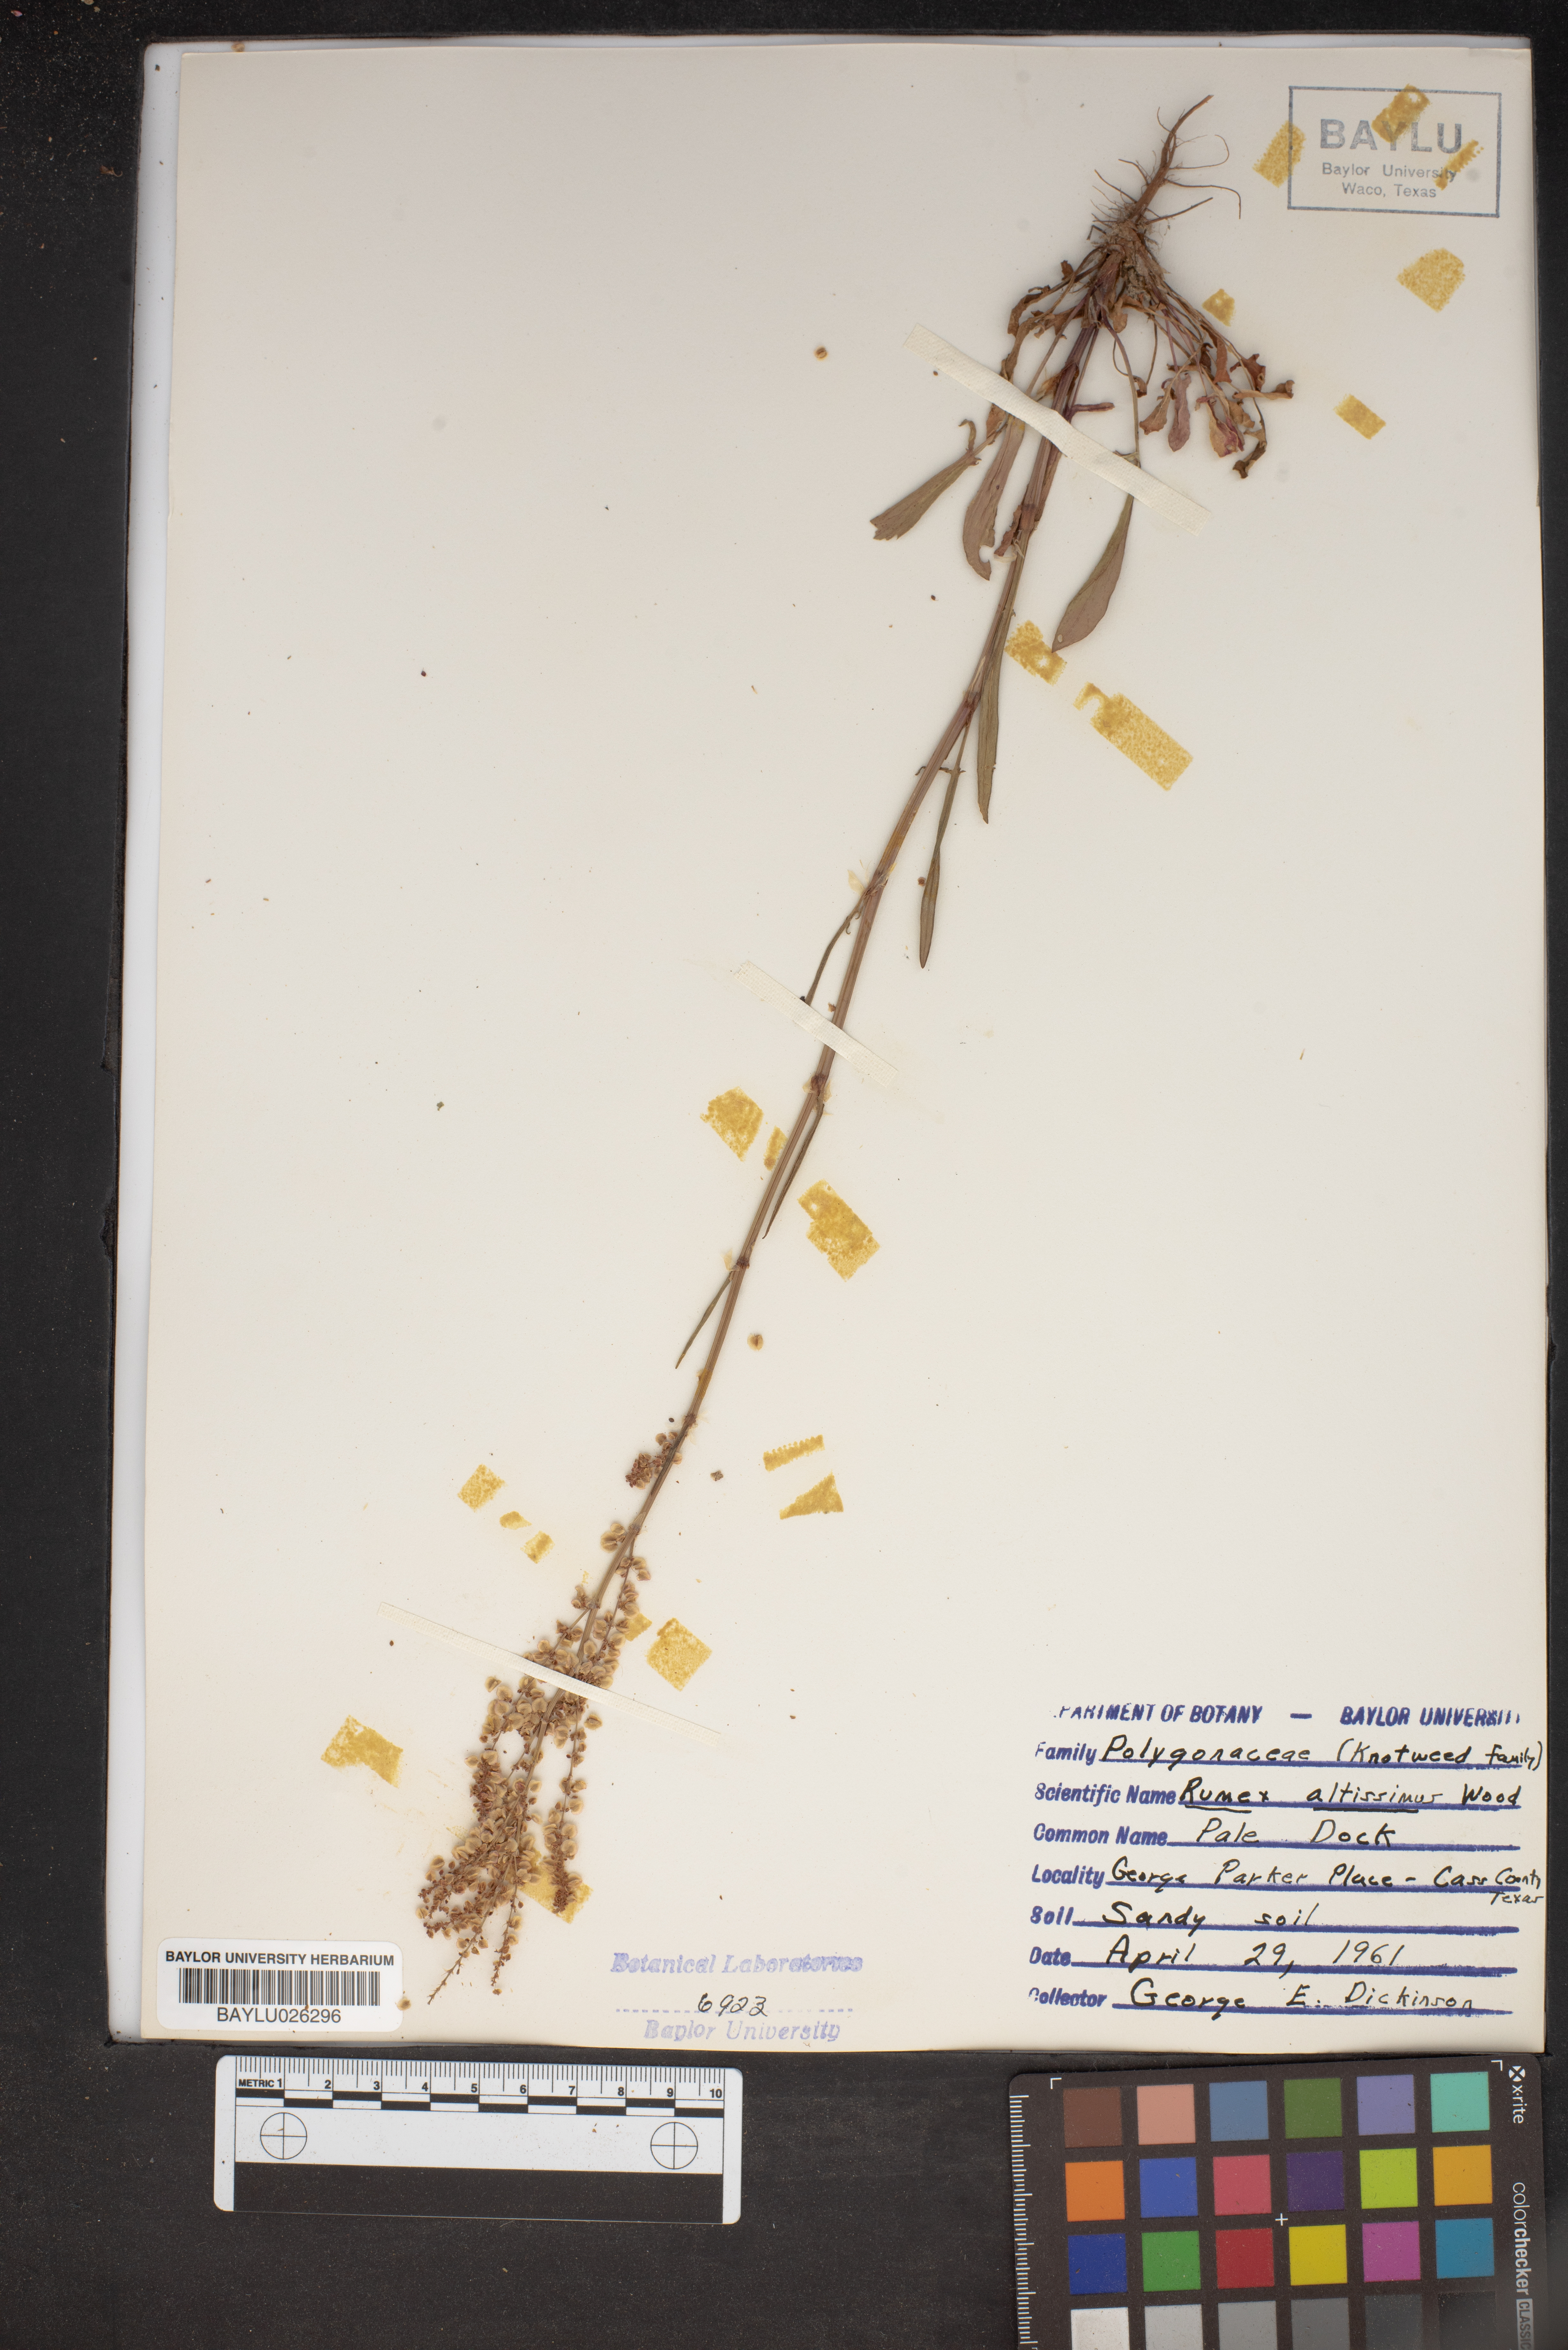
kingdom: Plantae
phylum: Tracheophyta
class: Magnoliopsida
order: Caryophyllales
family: Polygonaceae
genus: Rumex
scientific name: Rumex altissimus
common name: Smooth dock
